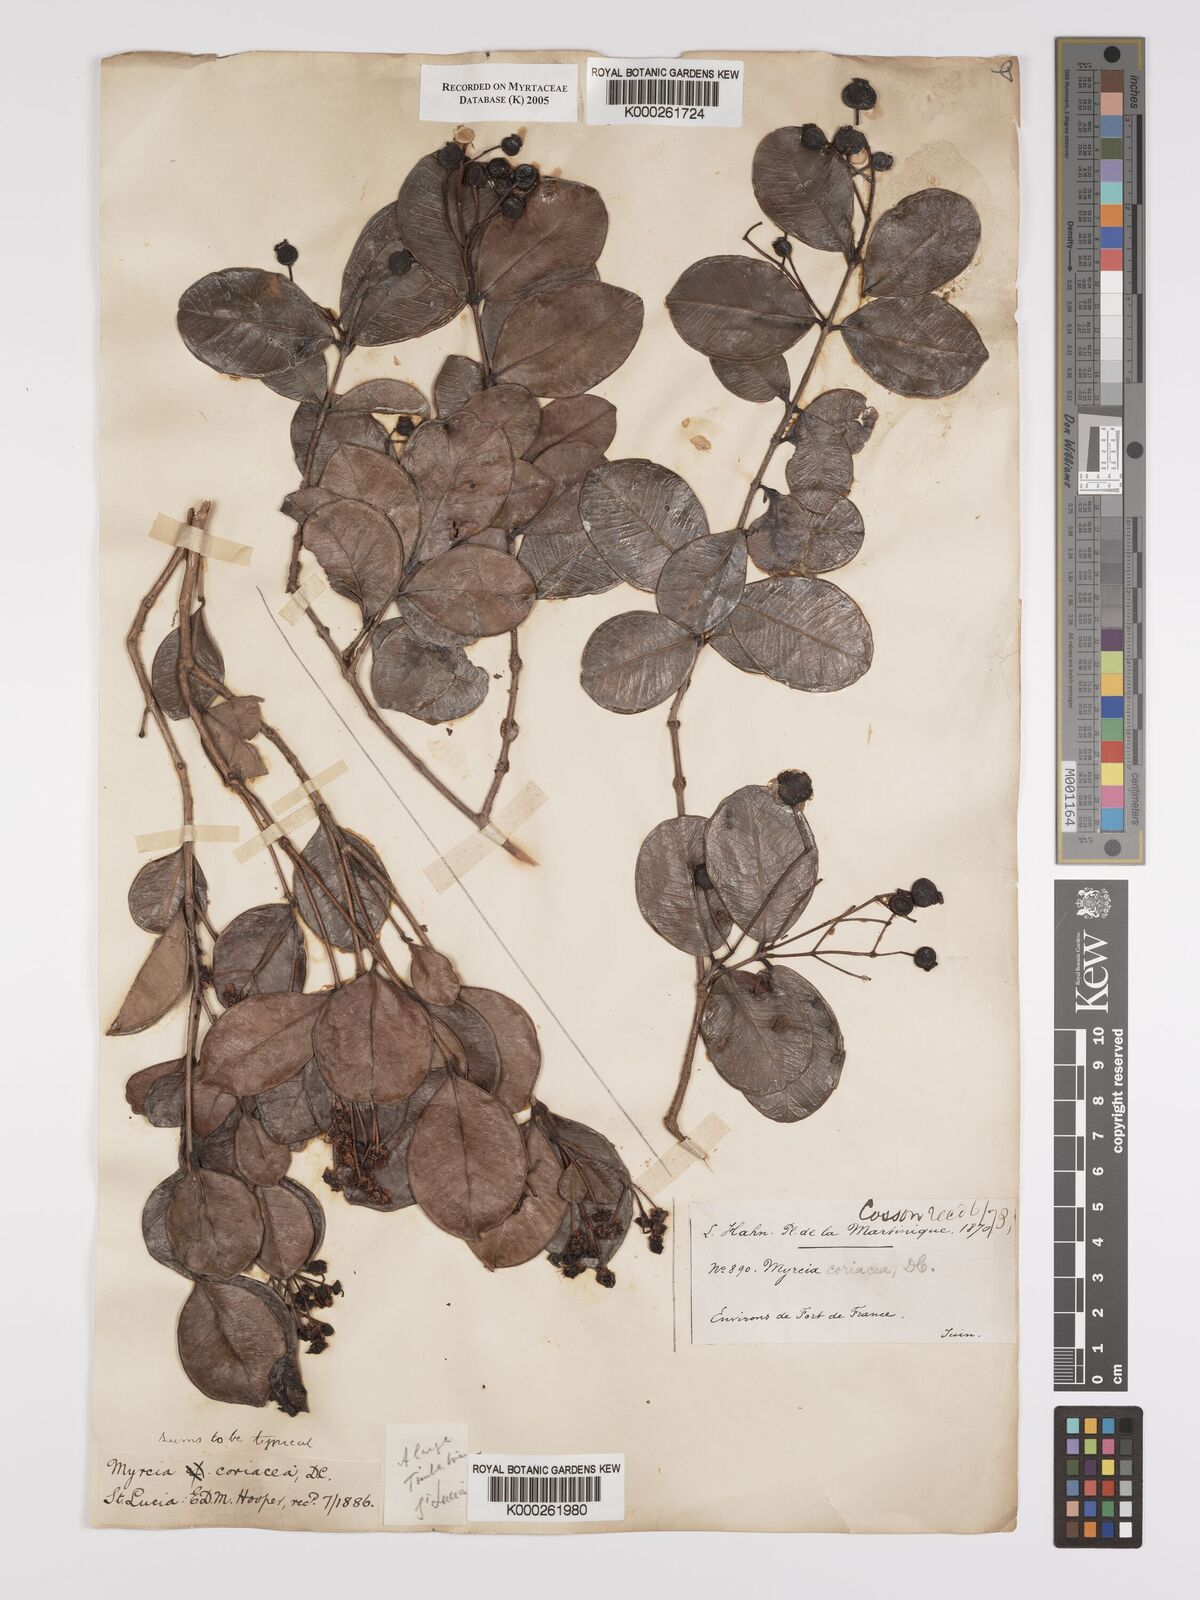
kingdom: Plantae
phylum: Tracheophyta
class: Magnoliopsida
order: Myrtales
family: Myrtaceae
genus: Myrcia
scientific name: Myrcia guianensis
